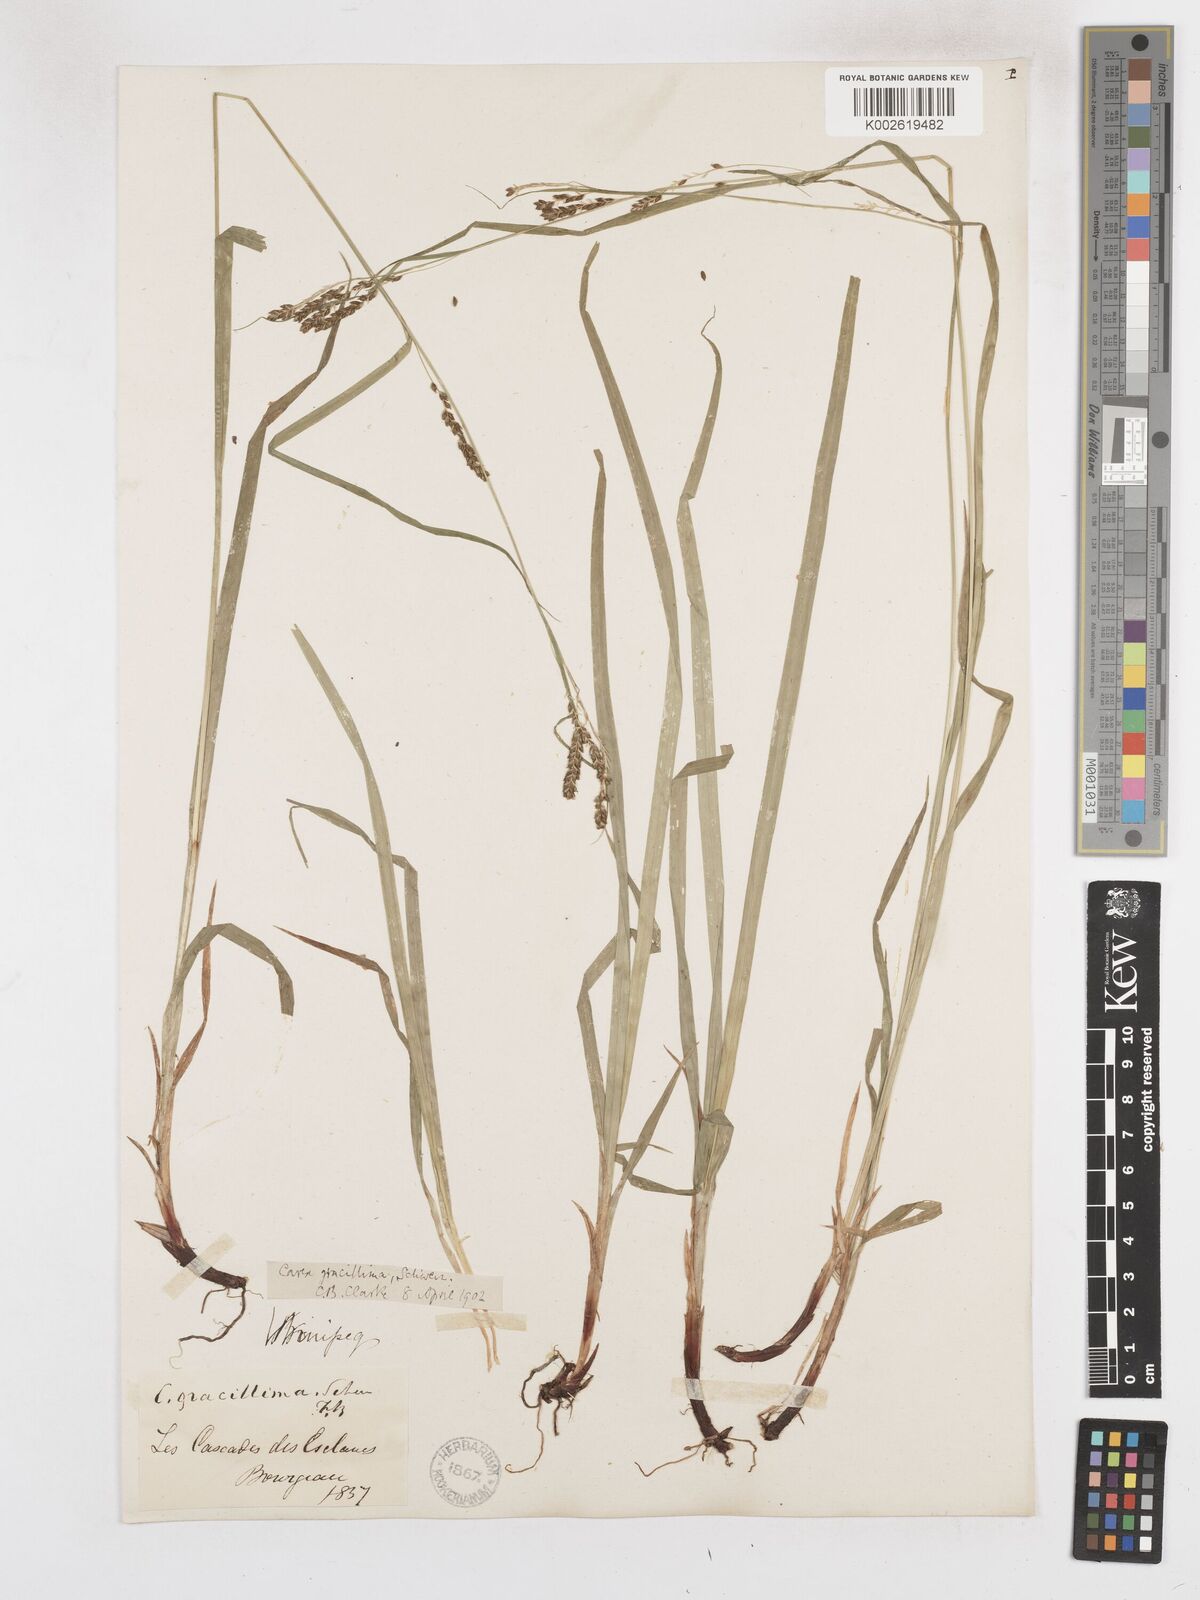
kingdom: Plantae
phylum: Tracheophyta
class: Liliopsida
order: Poales
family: Cyperaceae
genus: Carex
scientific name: Carex gracillima
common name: Graceful sedge
